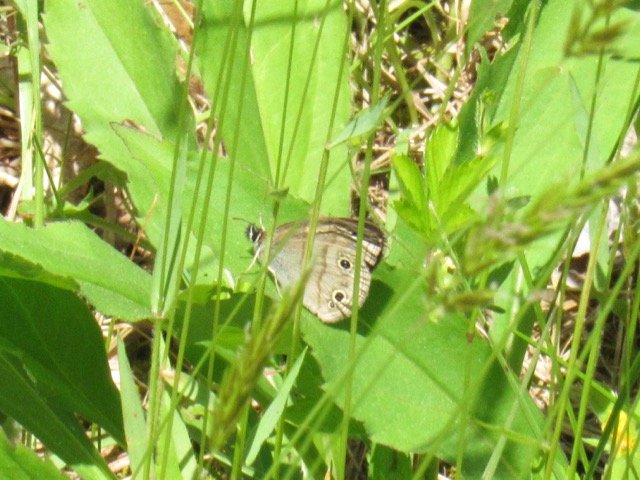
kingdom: Animalia
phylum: Arthropoda
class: Insecta
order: Lepidoptera
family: Nymphalidae
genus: Euptychia
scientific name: Euptychia cymela
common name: Little Wood Satyr
